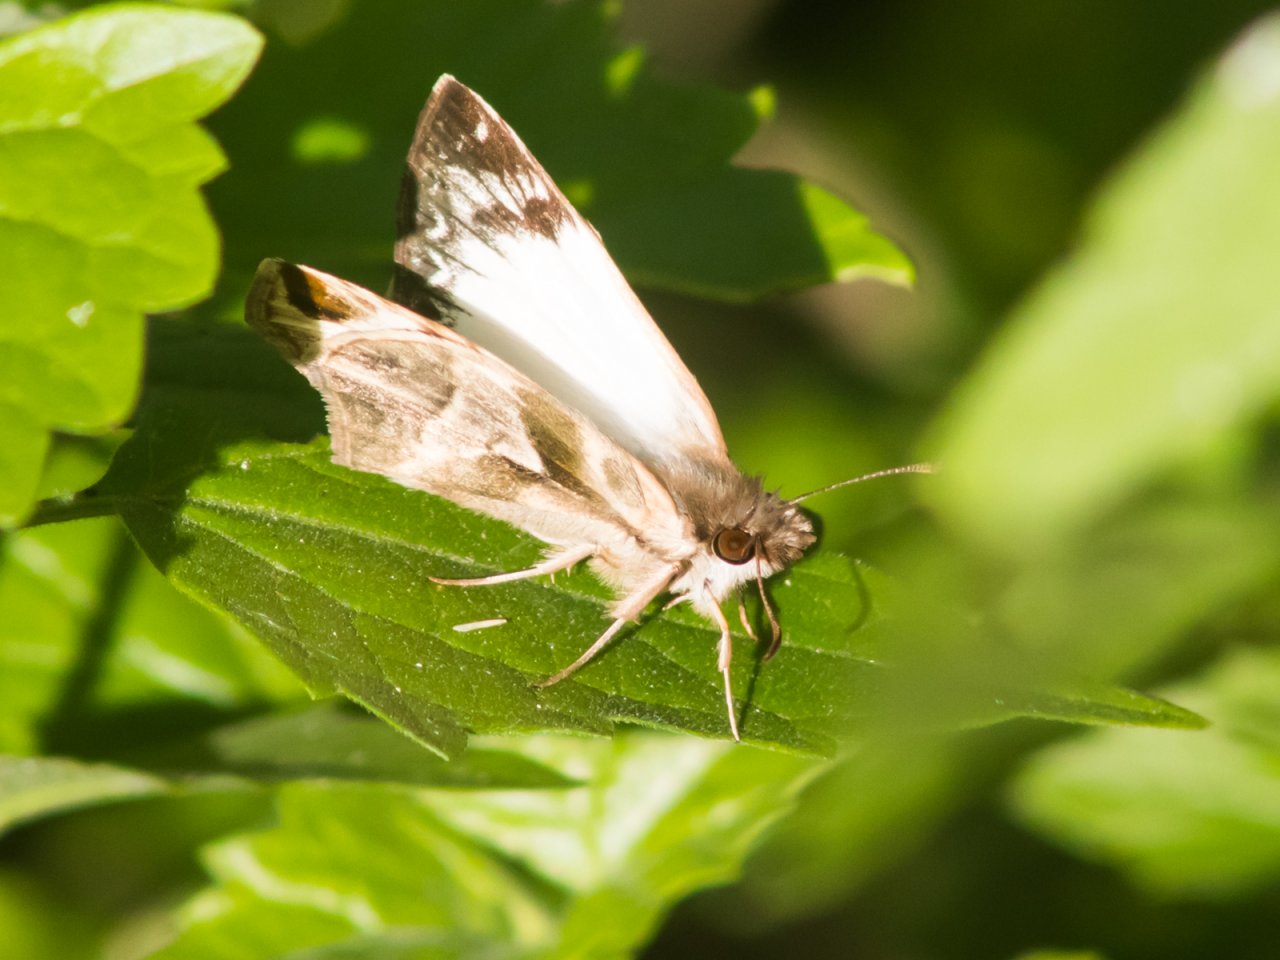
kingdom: Animalia
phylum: Arthropoda
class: Insecta
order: Lepidoptera
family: Hesperiidae
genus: Heliopetes
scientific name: Heliopetes laviana
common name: Laviana White-Skipper
